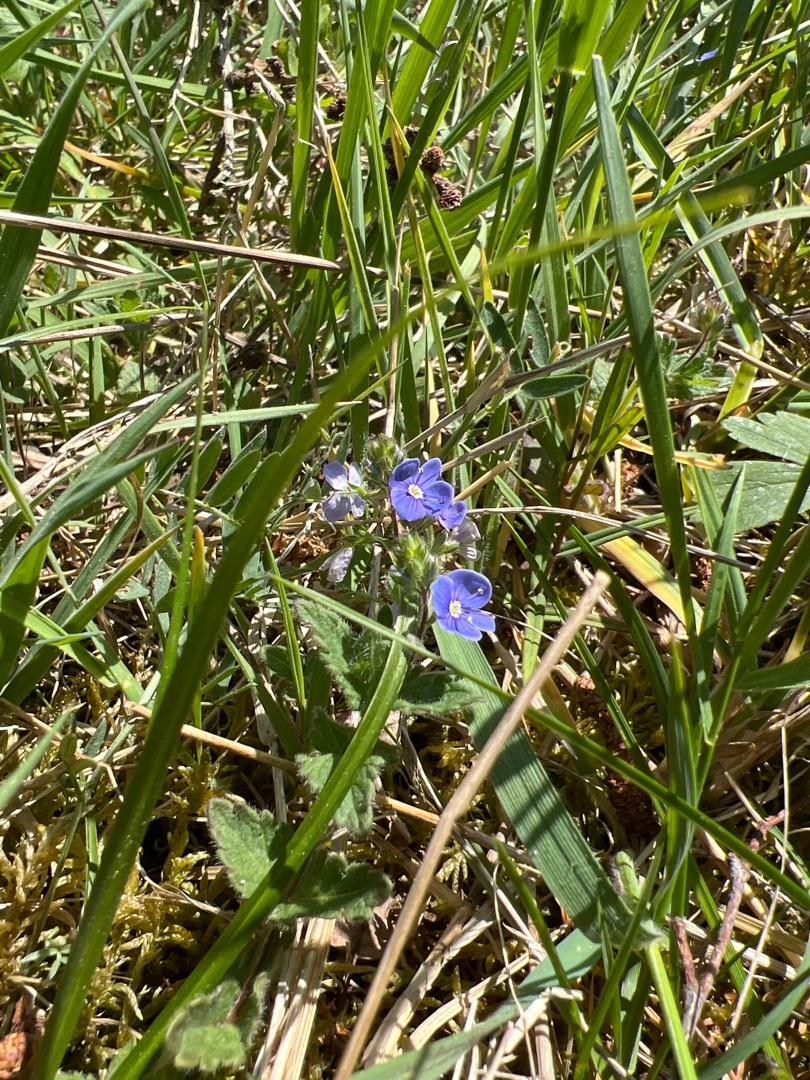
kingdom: Plantae
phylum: Tracheophyta
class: Magnoliopsida
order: Lamiales
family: Plantaginaceae
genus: Veronica
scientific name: Veronica chamaedrys
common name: Tveskægget ærenpris
